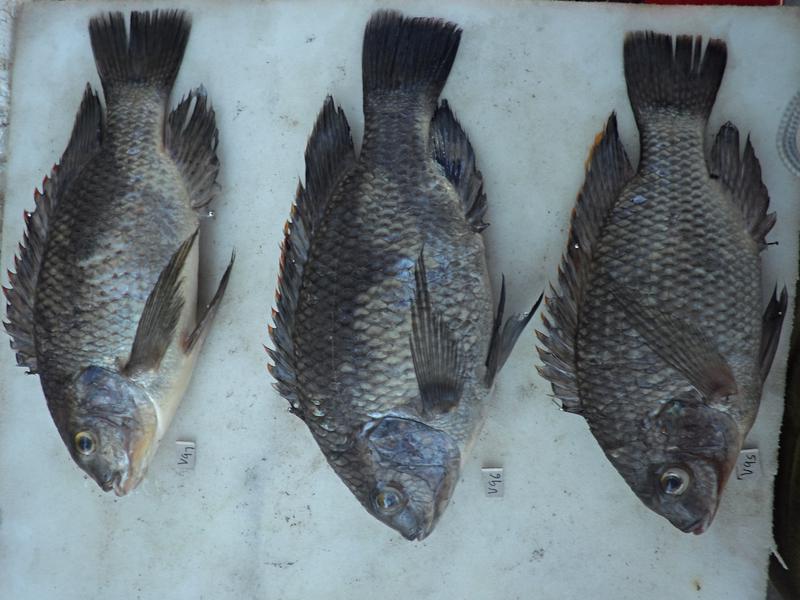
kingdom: Animalia
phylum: Chordata
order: Perciformes
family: Cichlidae
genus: Oreochromis
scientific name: Oreochromis variabilis
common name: Victoria tilapia
